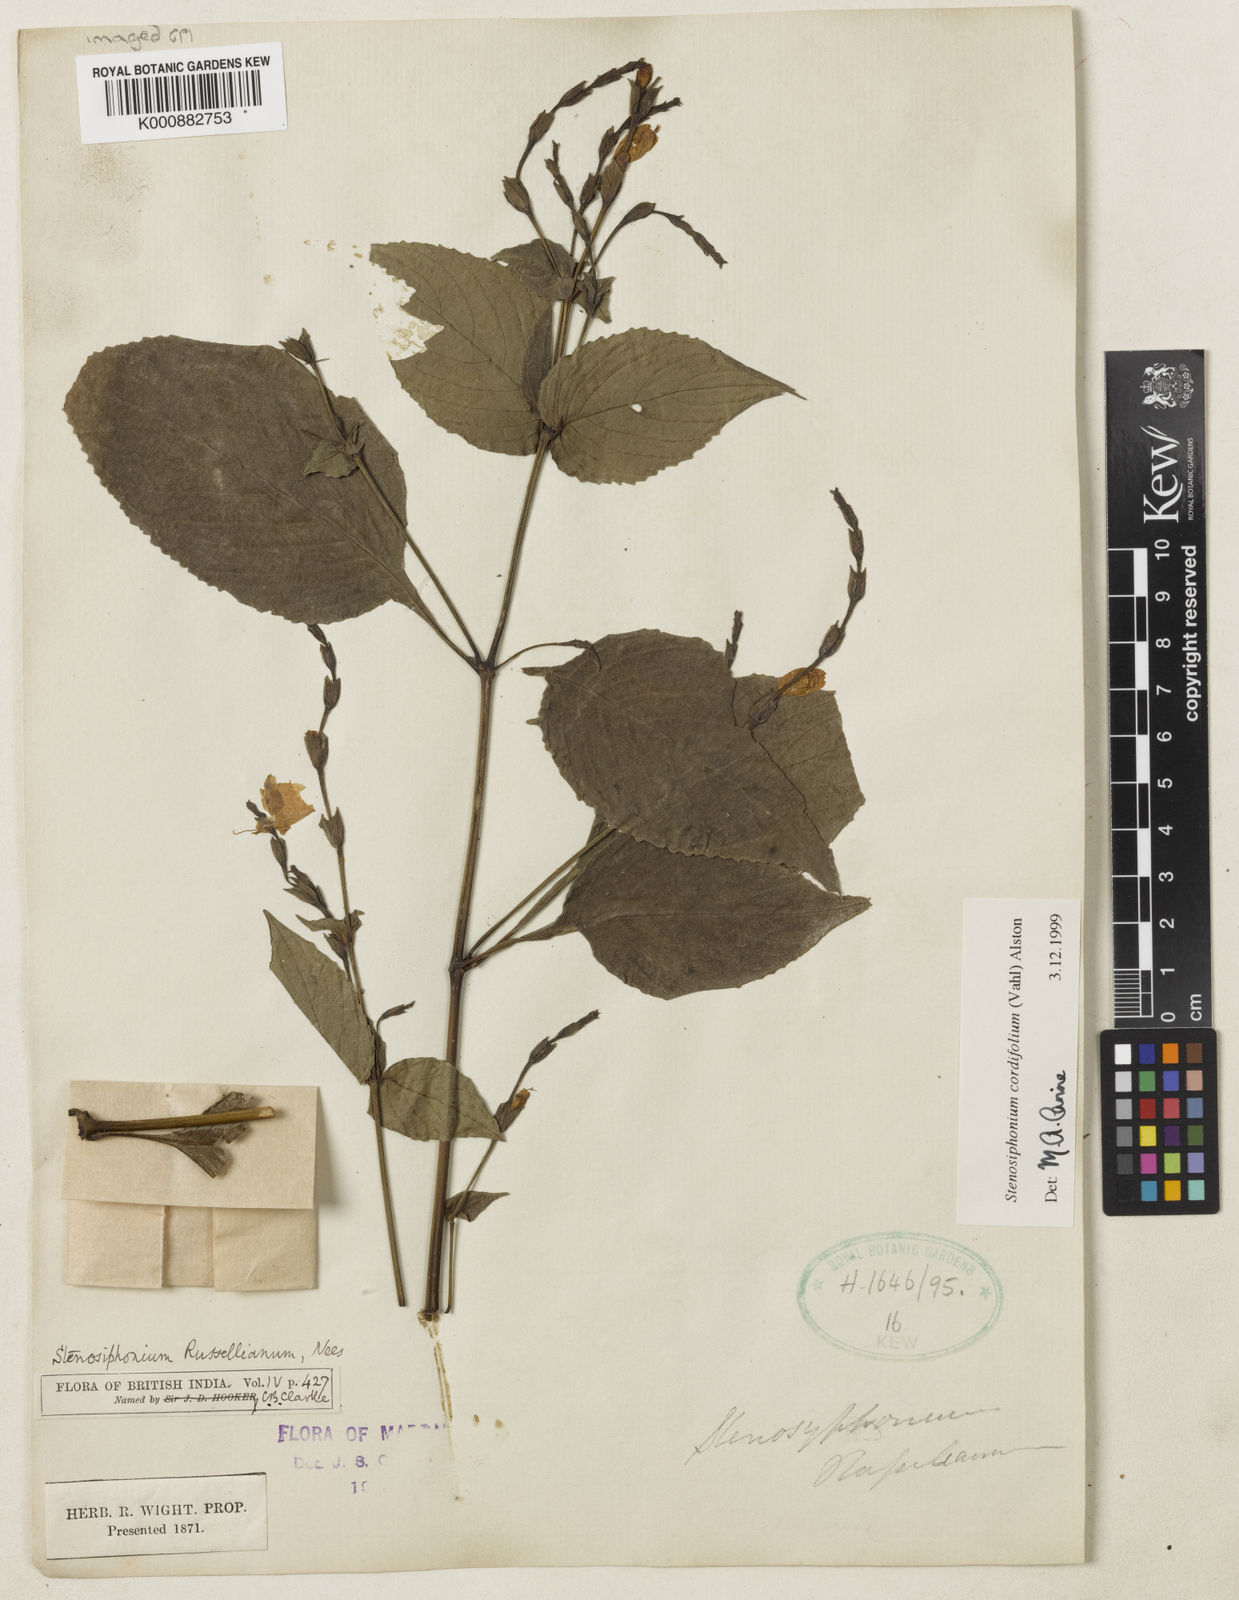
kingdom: Plantae
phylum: Tracheophyta
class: Magnoliopsida
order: Lamiales
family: Acanthaceae
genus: Strobilanthes
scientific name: Strobilanthes cordifolia
